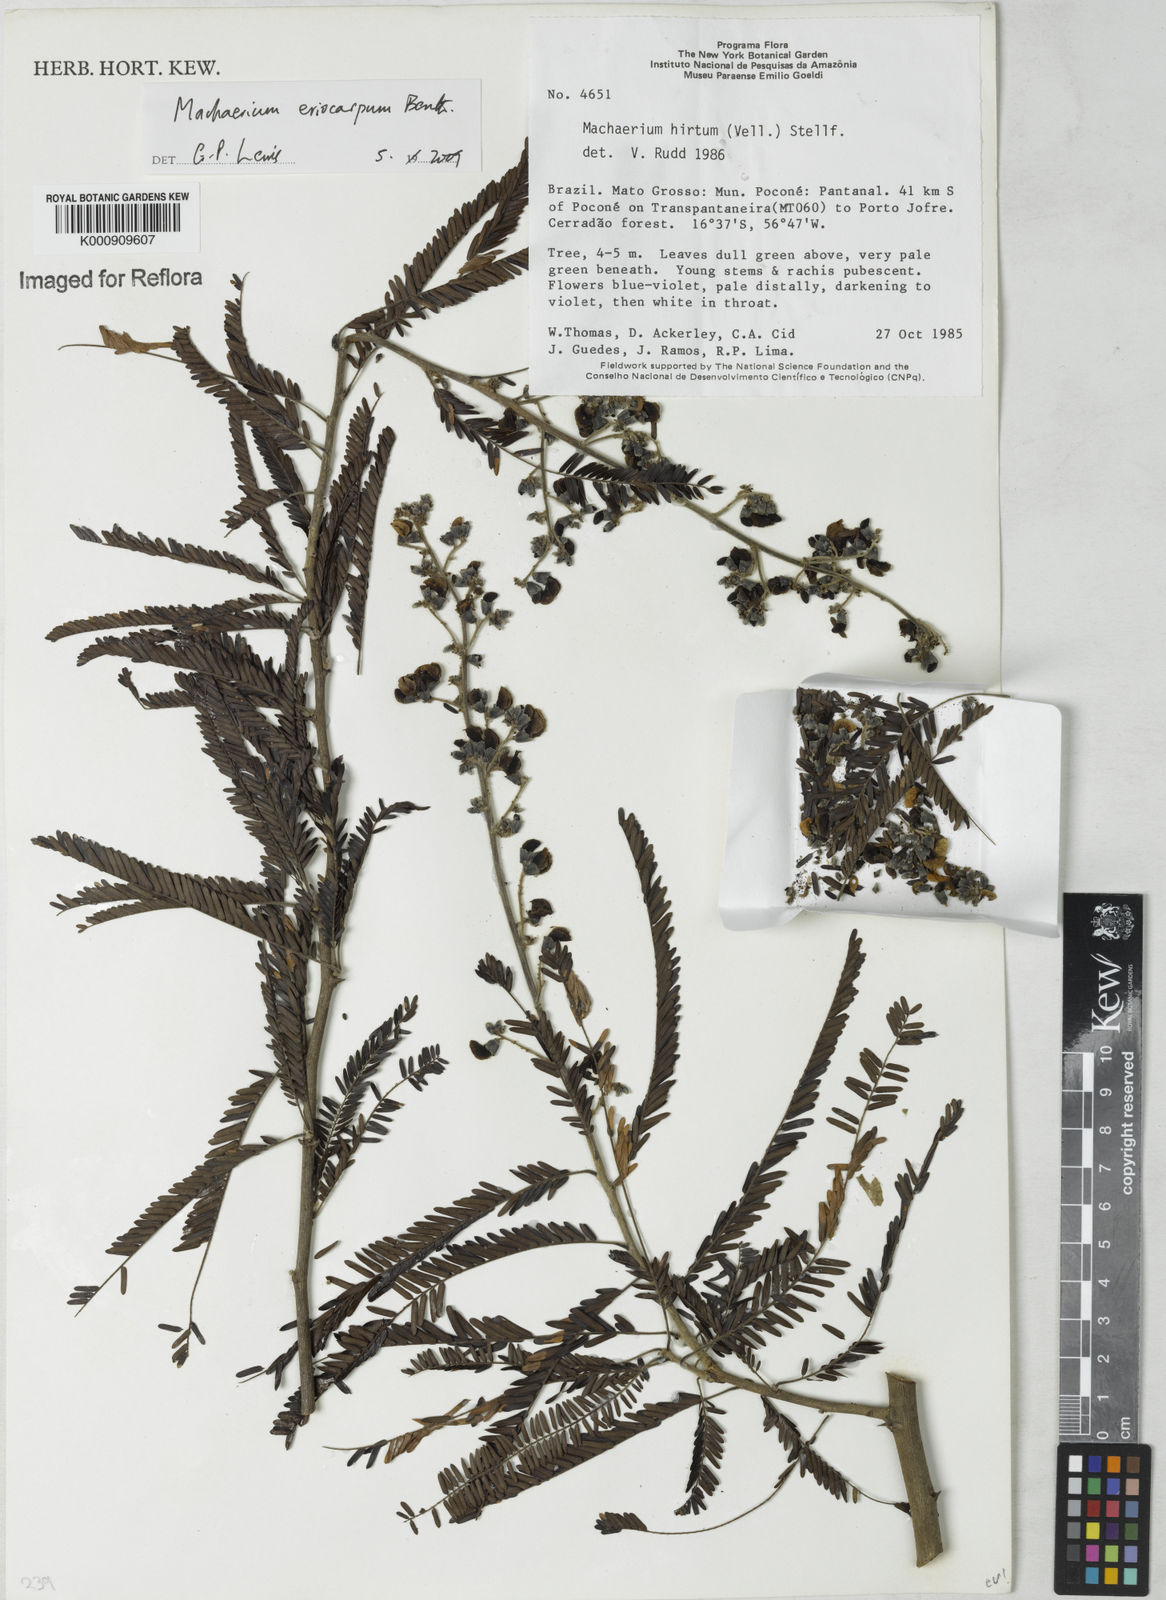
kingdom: Plantae
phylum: Tracheophyta
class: Magnoliopsida
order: Fabales
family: Fabaceae
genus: Machaerium
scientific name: Machaerium eriocarpum
